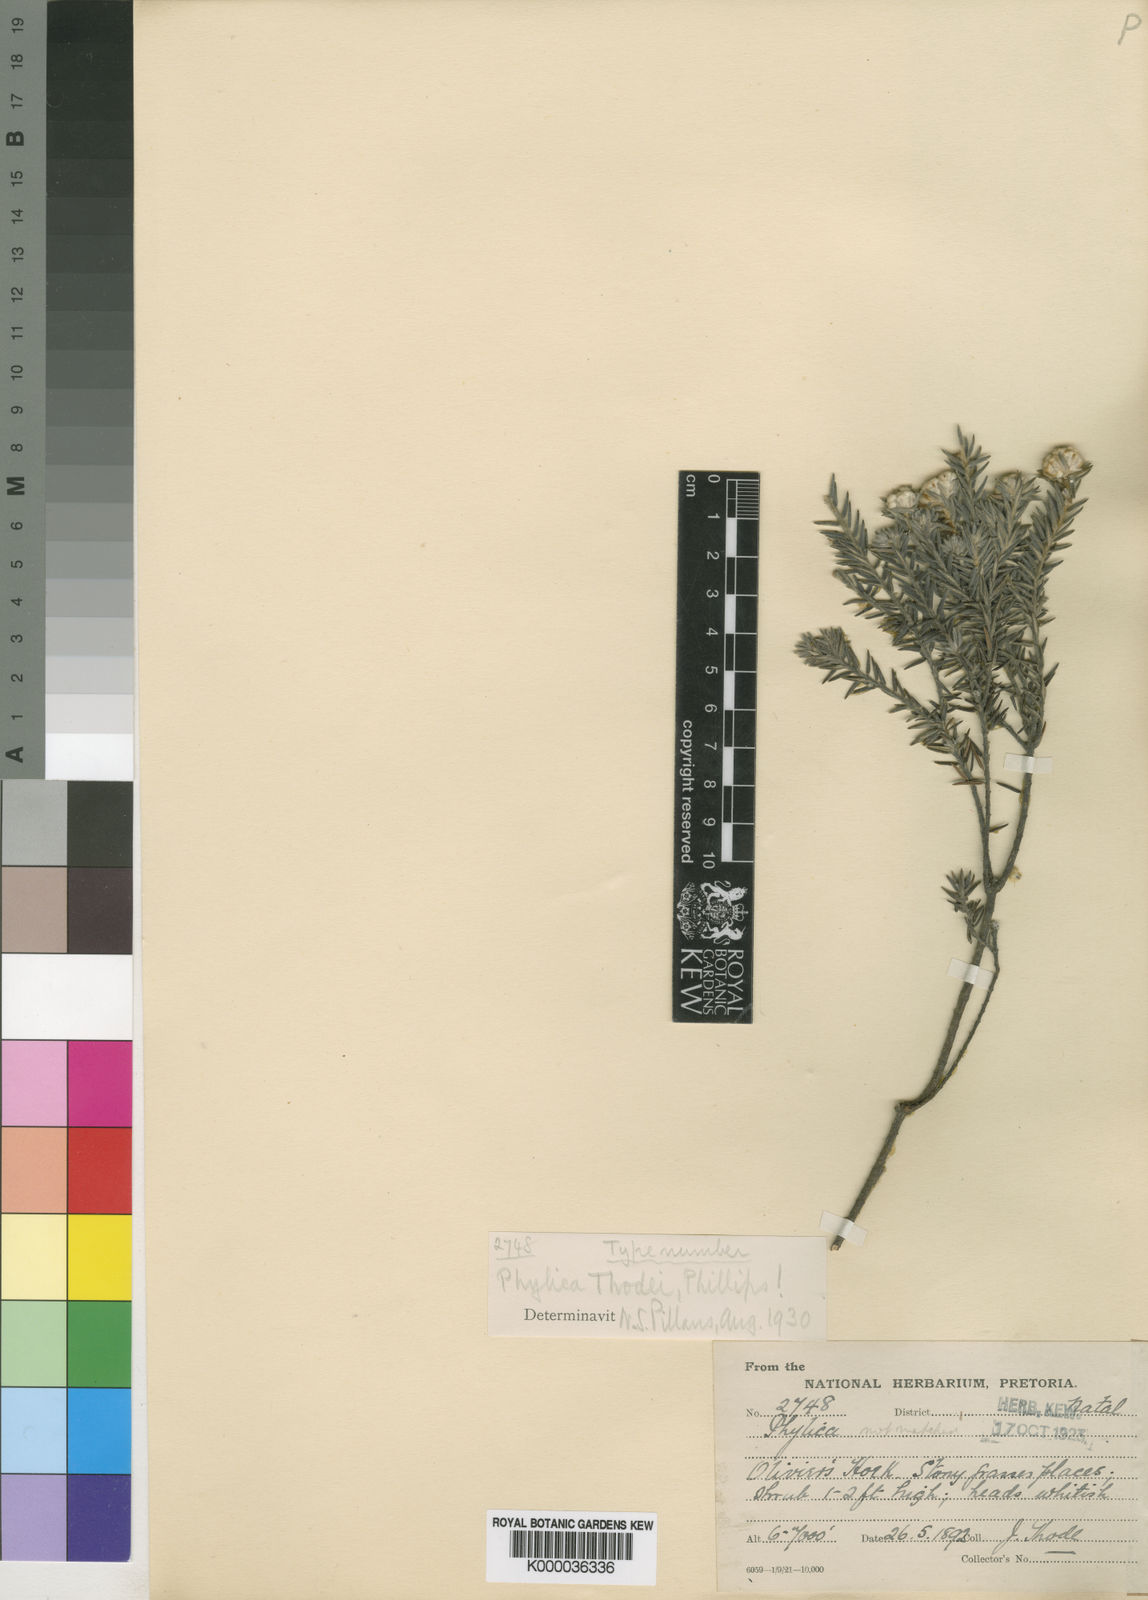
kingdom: Plantae
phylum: Tracheophyta
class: Magnoliopsida
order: Rosales
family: Rhamnaceae
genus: Phylica
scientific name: Phylica thodei
